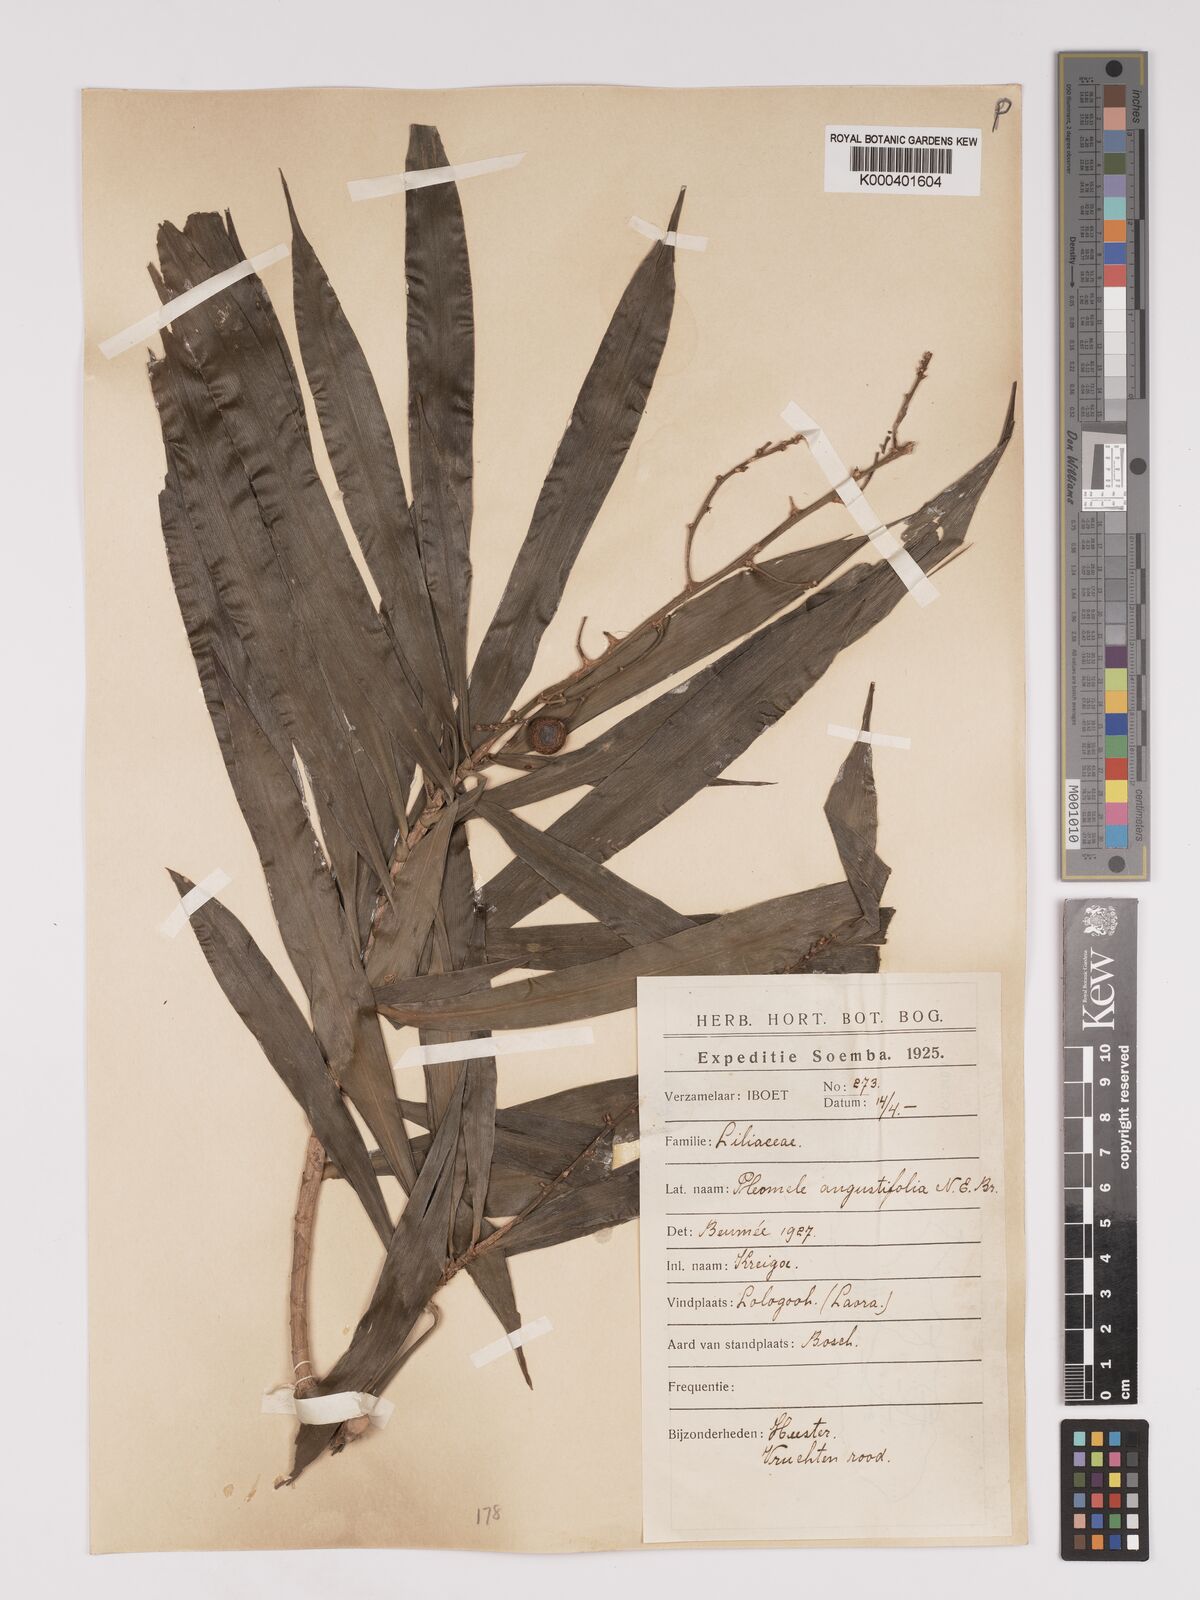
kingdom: Plantae
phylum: Tracheophyta
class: Liliopsida
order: Asparagales
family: Asparagaceae
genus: Dracaena
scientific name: Dracaena angustifolia
